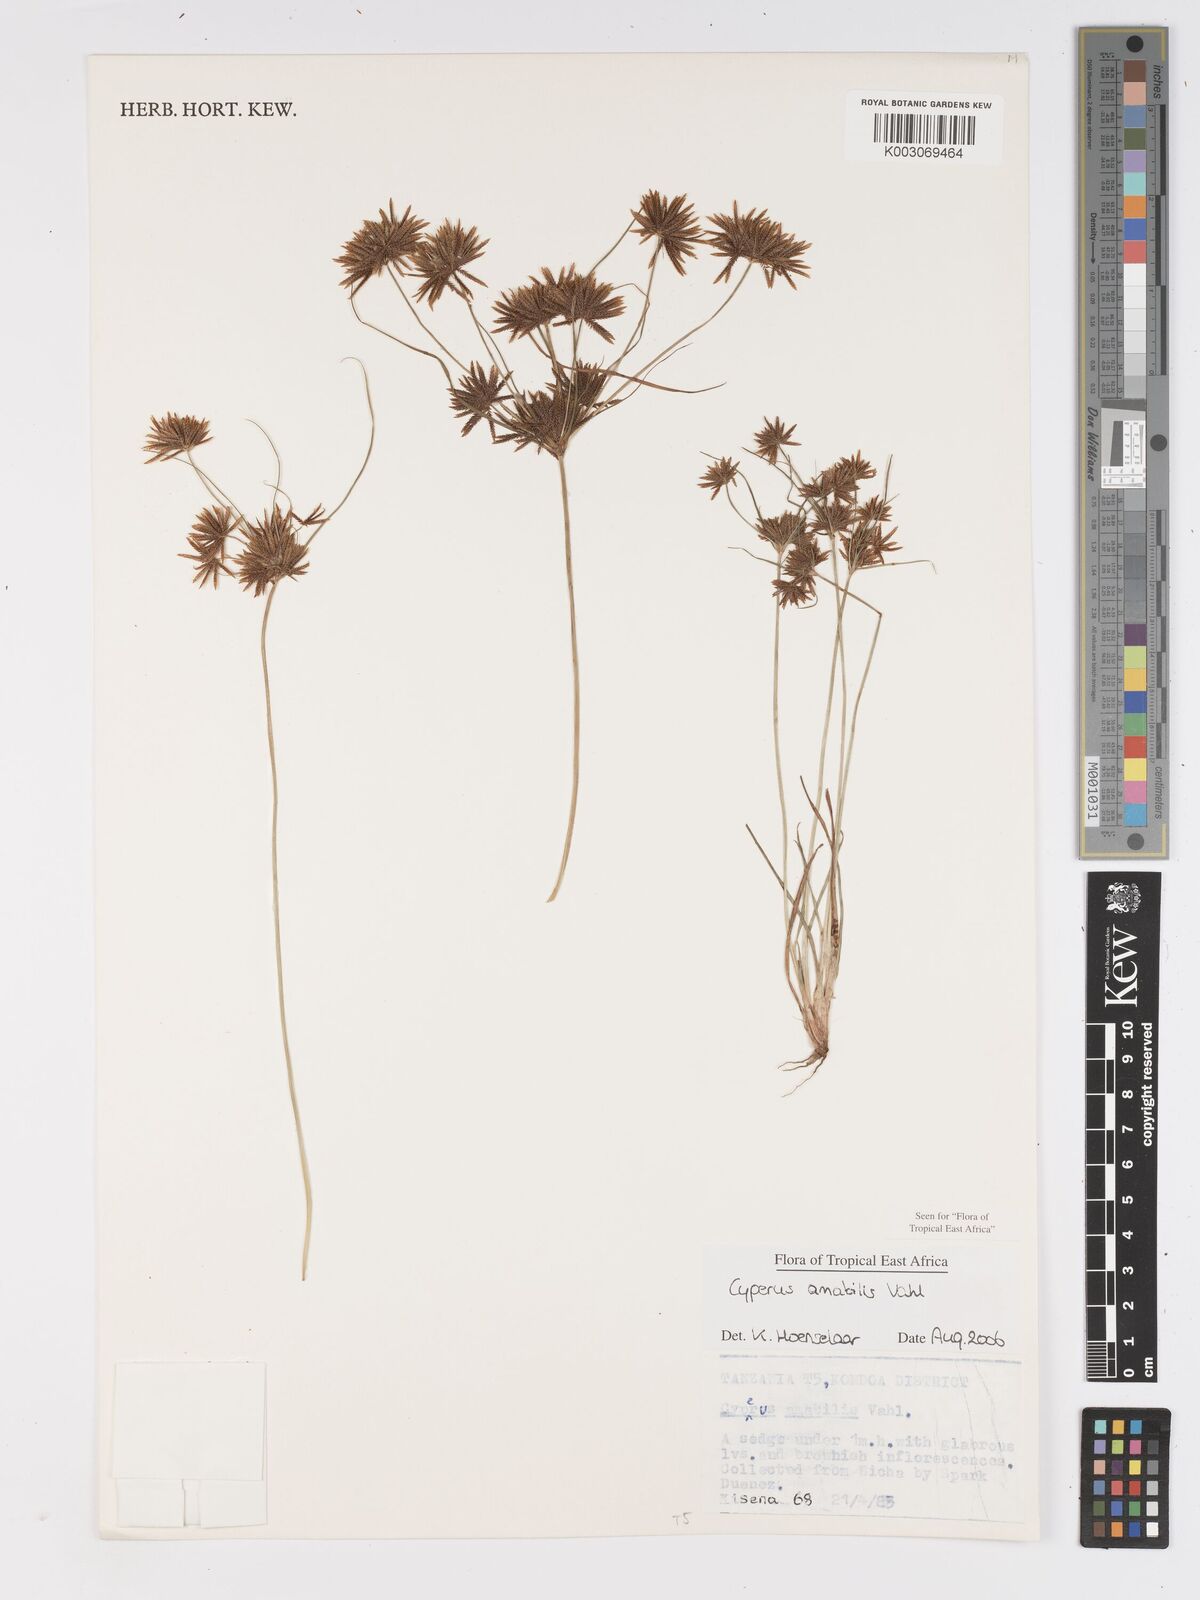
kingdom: Plantae
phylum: Tracheophyta
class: Liliopsida
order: Poales
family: Cyperaceae
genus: Cyperus
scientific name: Cyperus amabilis
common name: Foothill flat sedge
